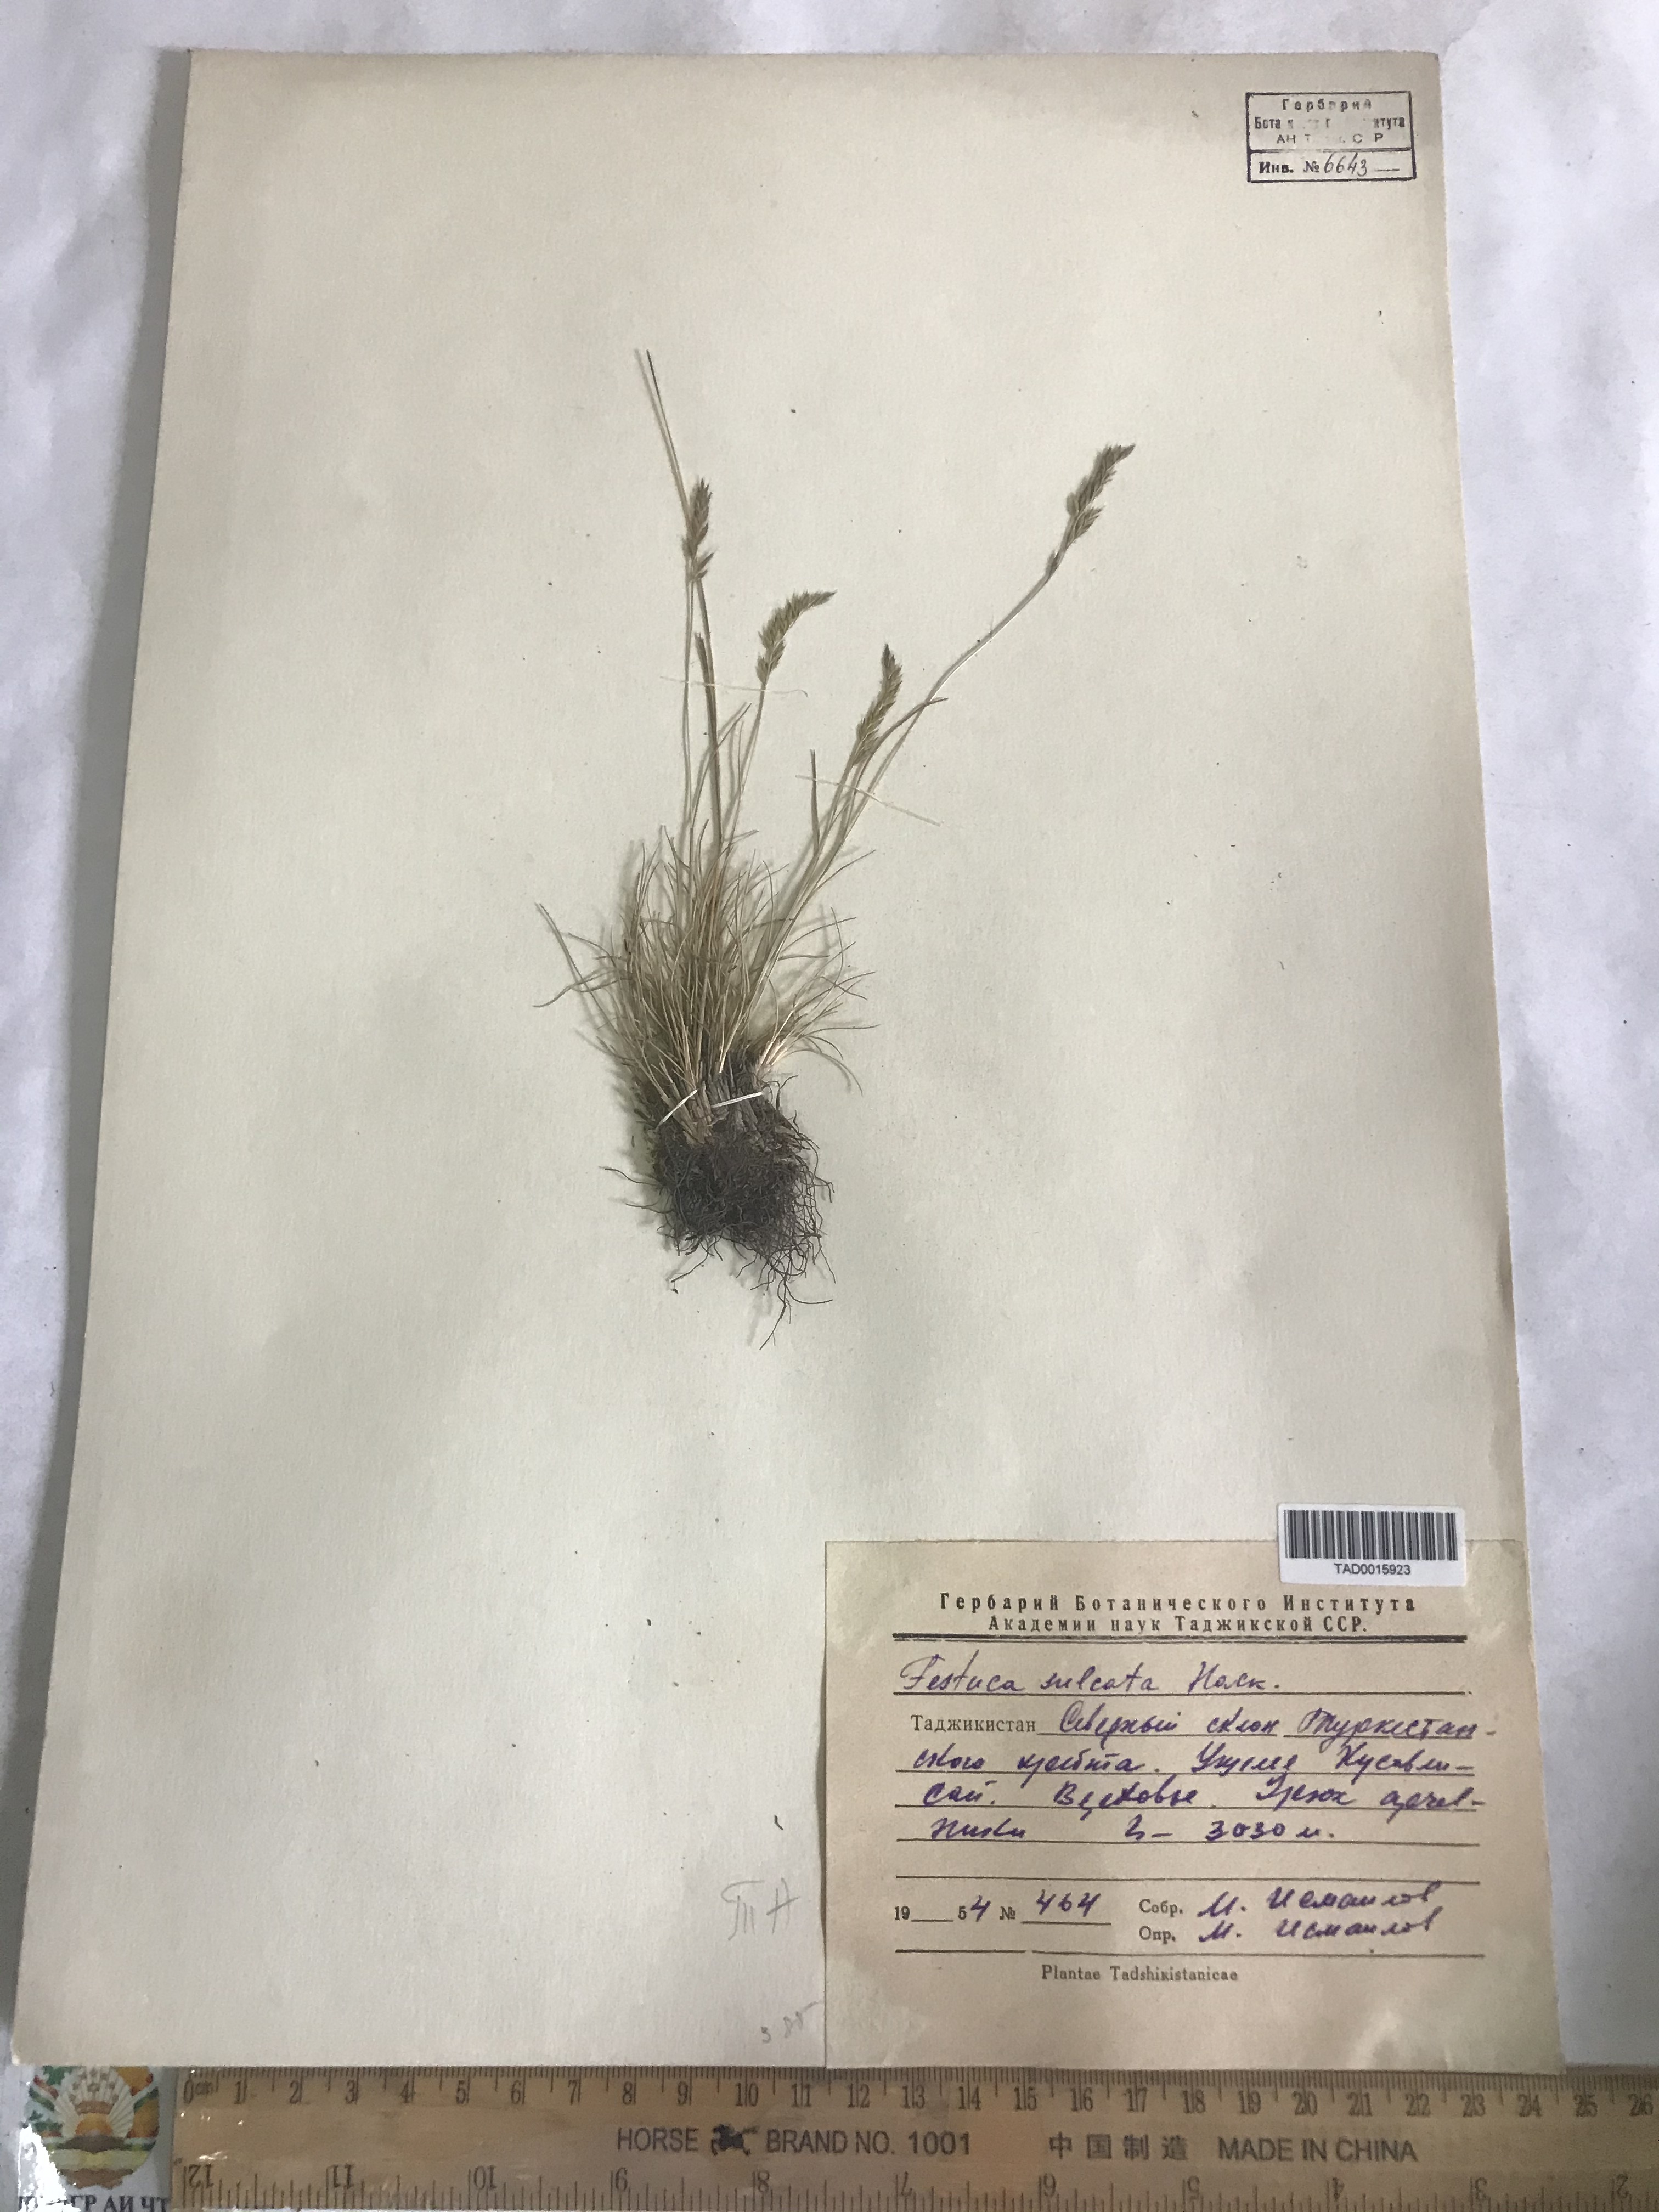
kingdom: Plantae
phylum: Tracheophyta
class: Liliopsida
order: Poales
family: Poaceae
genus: Festuca
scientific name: Festuca sulcata
